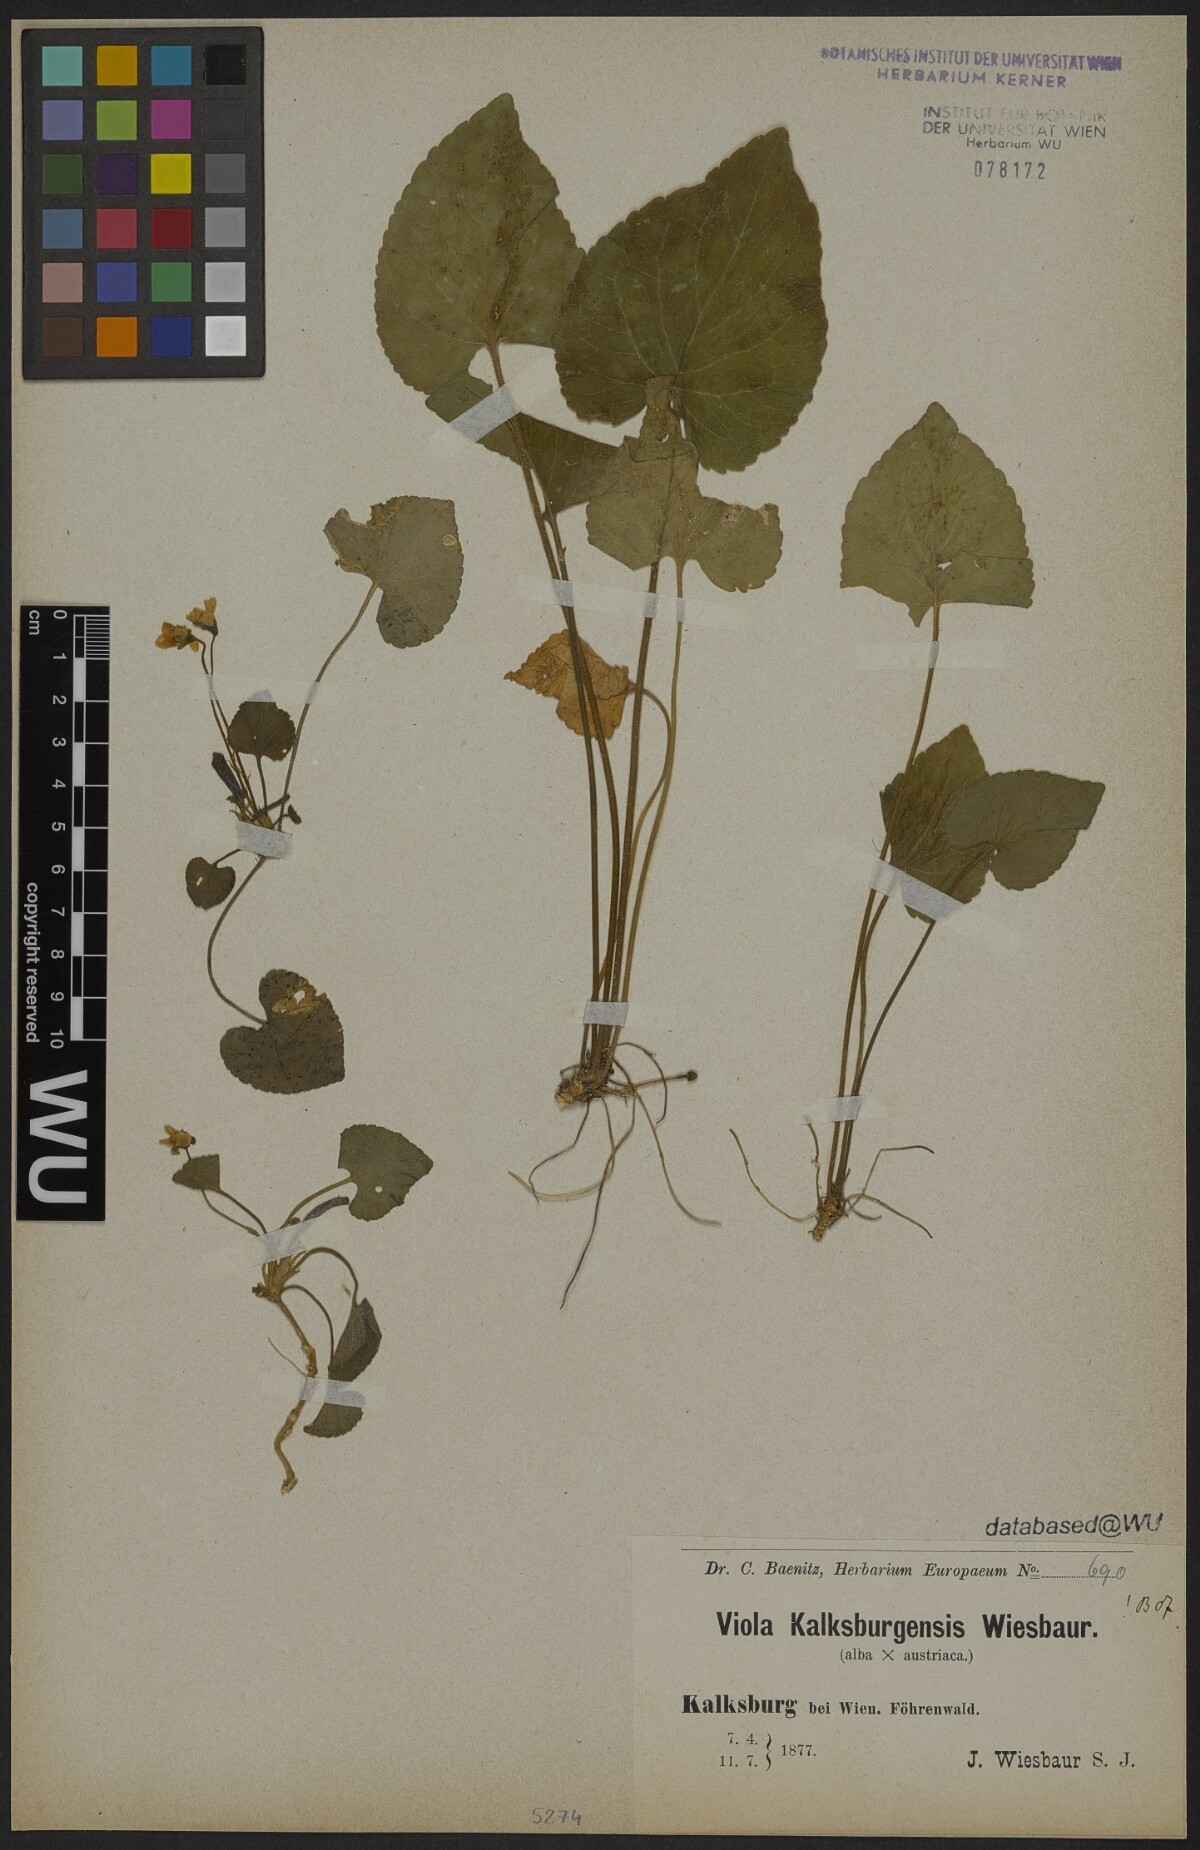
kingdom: Plantae
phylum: Tracheophyta
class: Magnoliopsida
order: Malpighiales
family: Violaceae
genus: Viola
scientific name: Viola kalksburgensis
